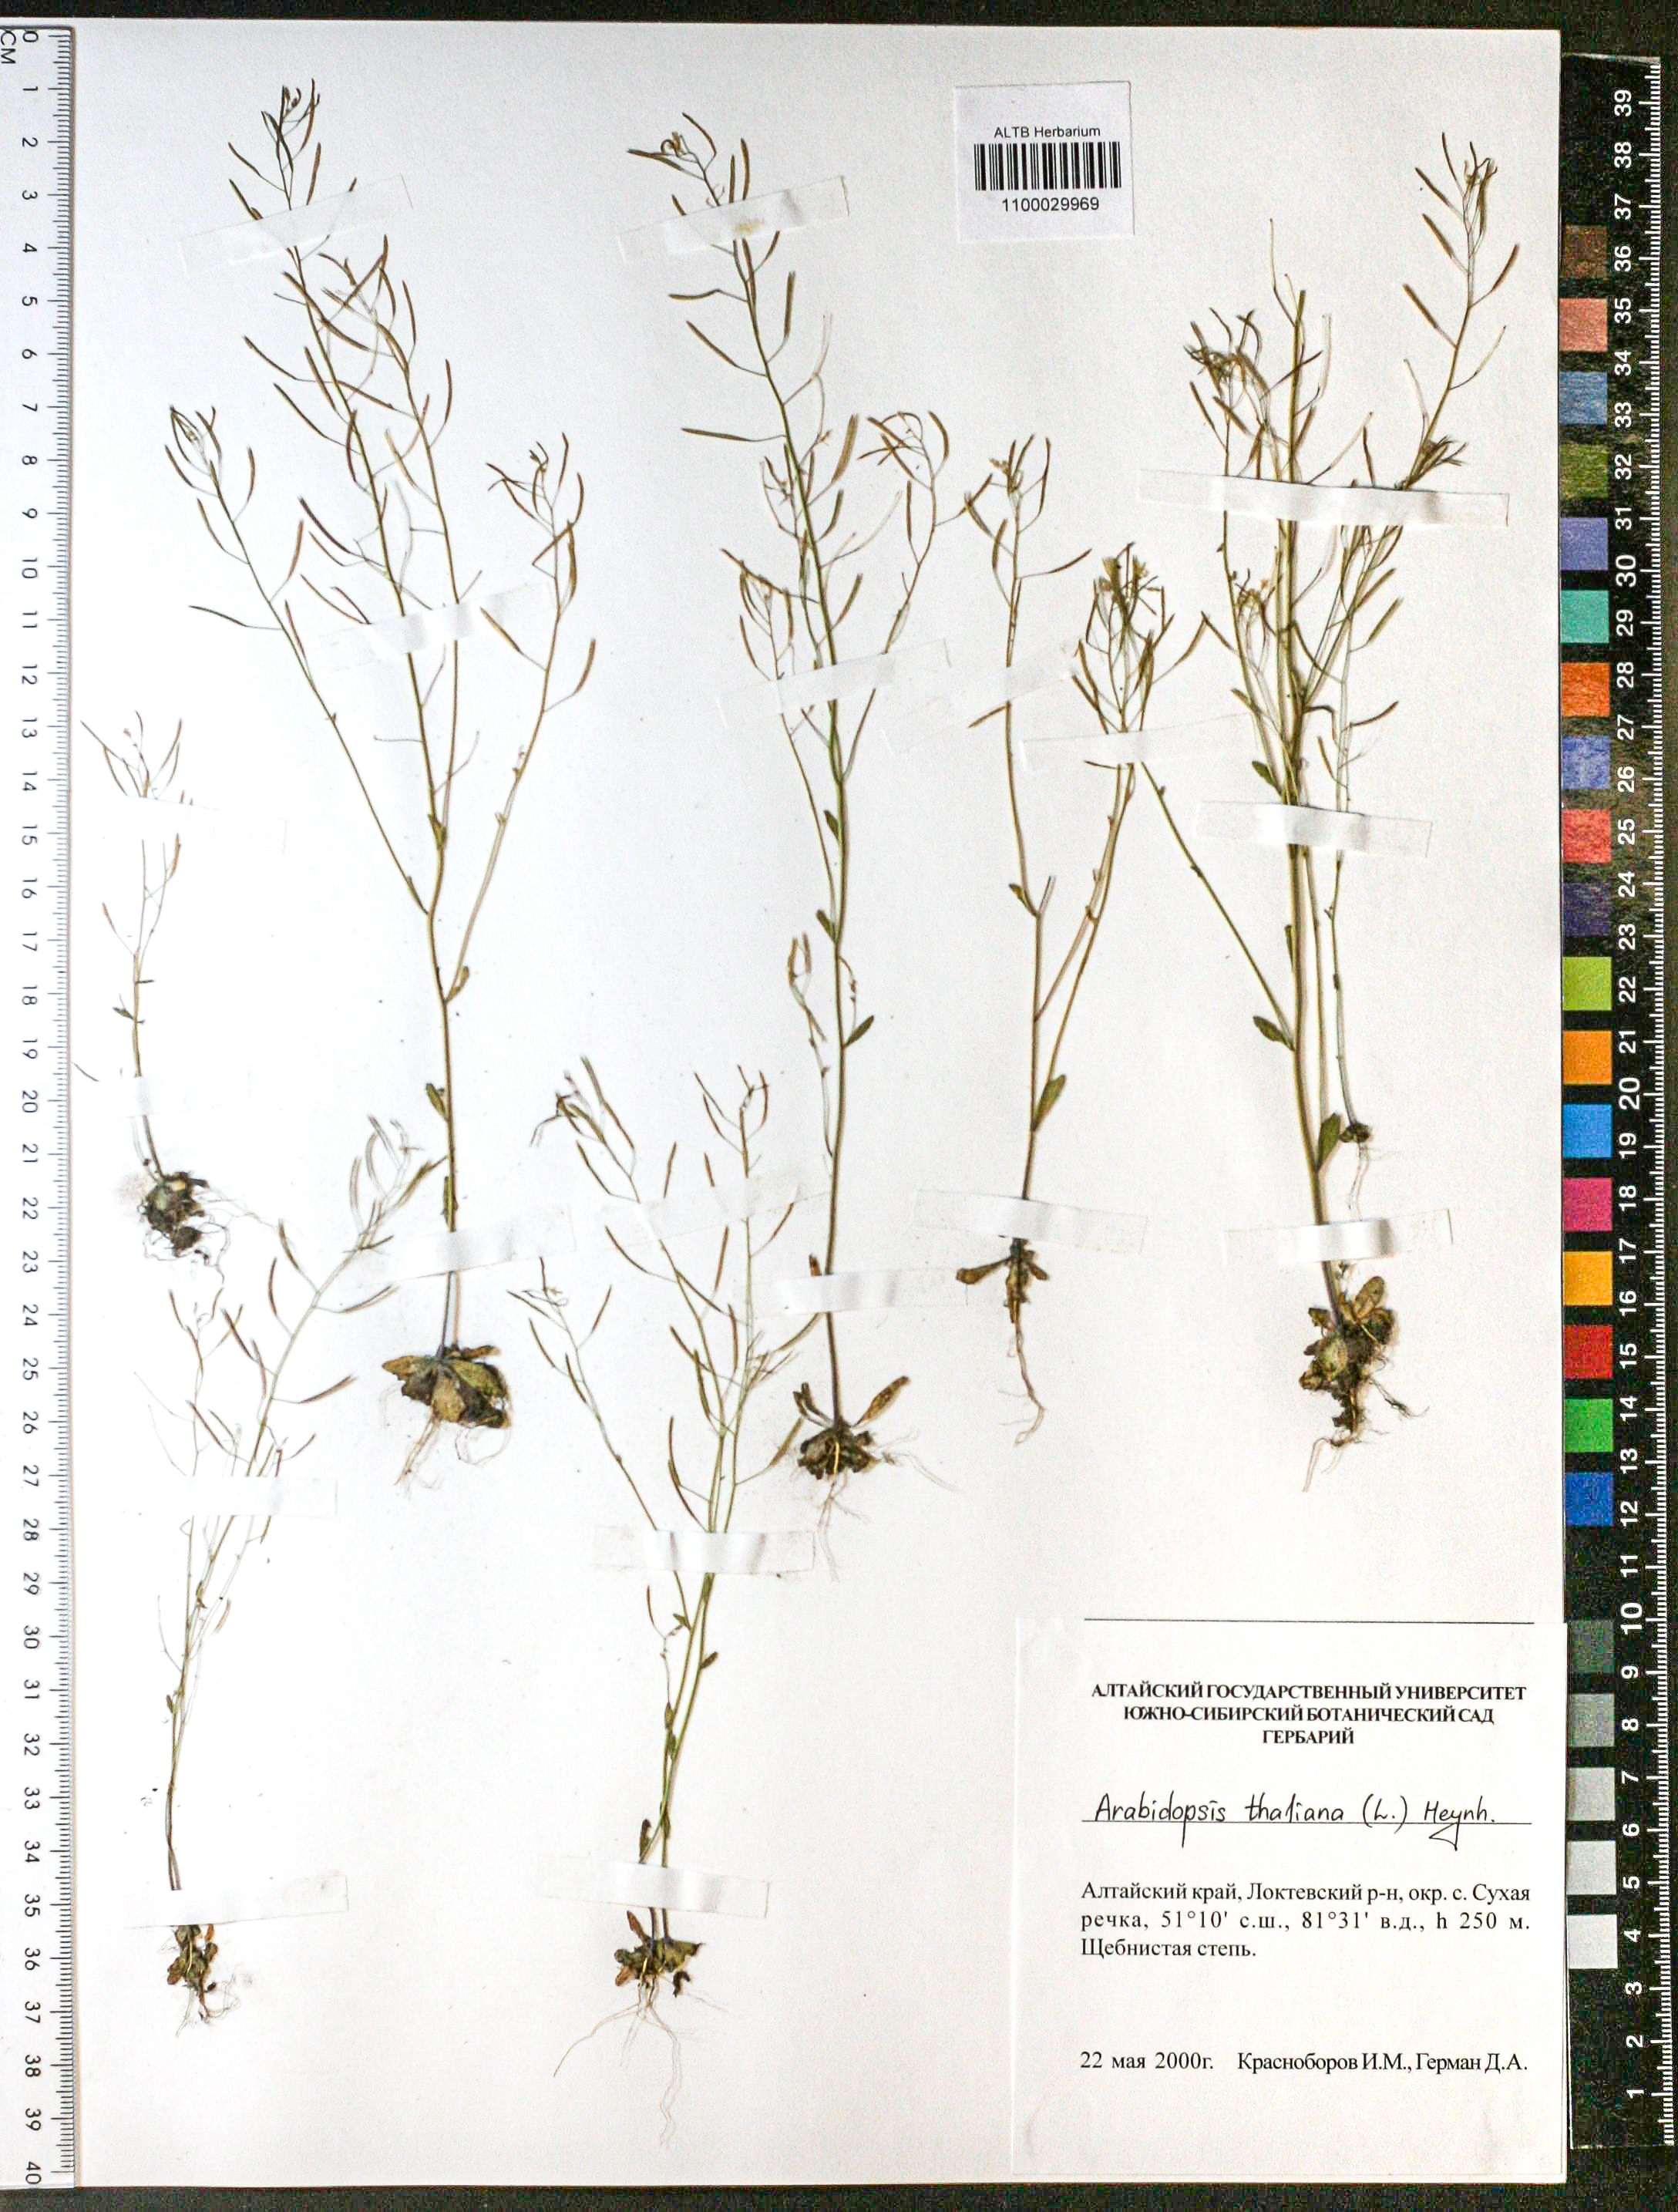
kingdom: Plantae
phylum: Tracheophyta
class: Magnoliopsida
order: Brassicales
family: Brassicaceae
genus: Arabidopsis
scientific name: Arabidopsis thaliana
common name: Thale cress
